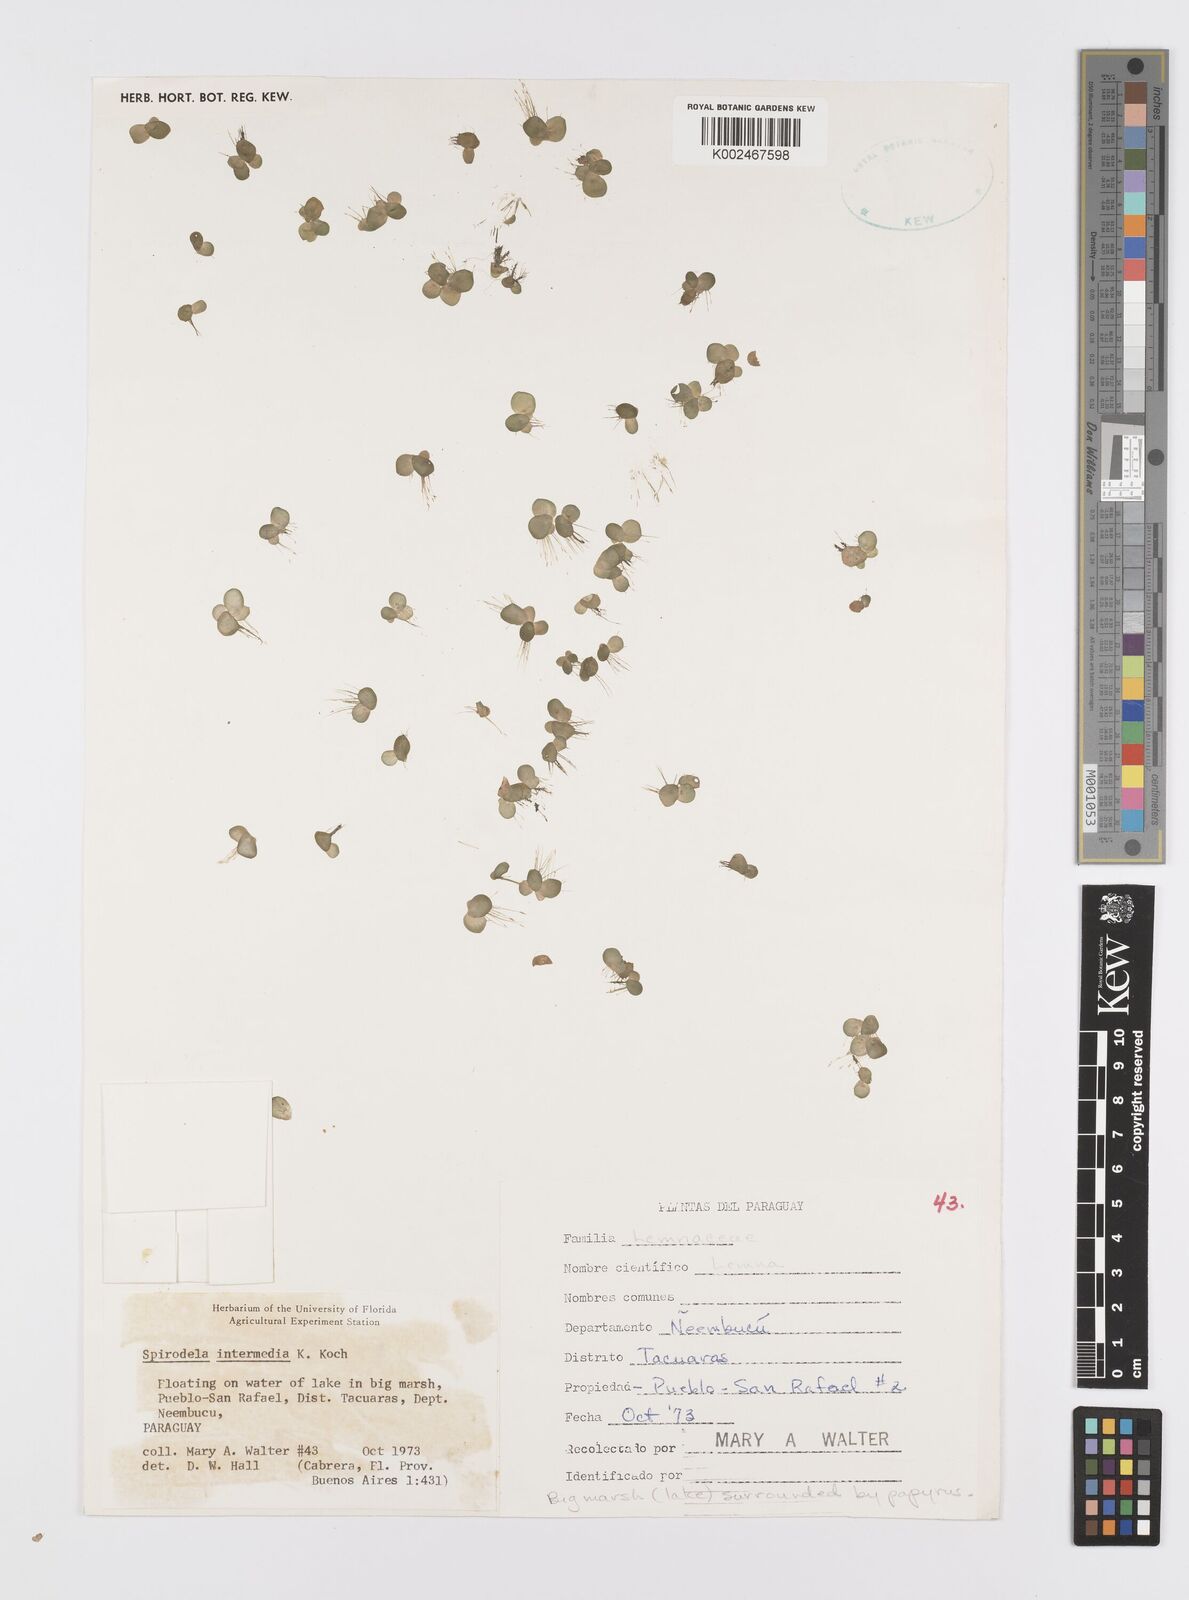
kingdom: Plantae
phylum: Tracheophyta
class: Liliopsida
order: Alismatales
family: Araceae
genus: Spirodela
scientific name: Spirodela punctata
